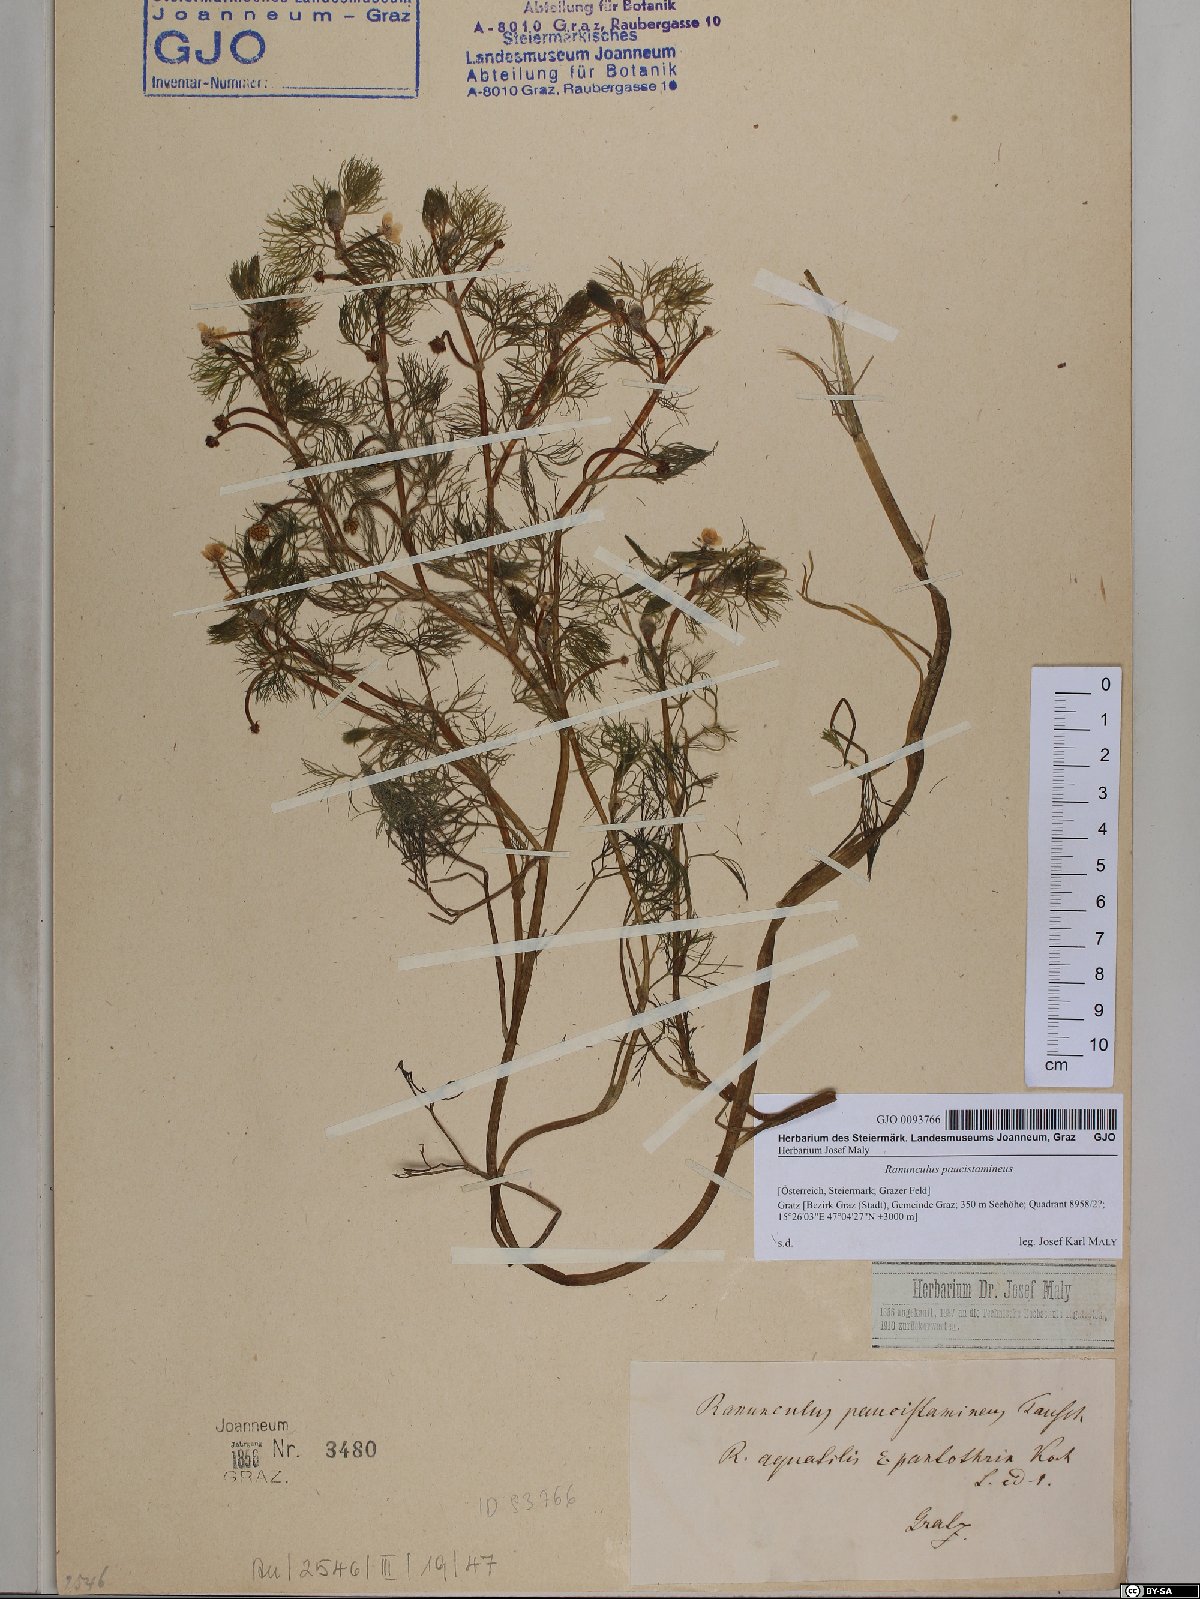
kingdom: Plantae
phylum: Tracheophyta
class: Magnoliopsida
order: Ranunculales
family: Ranunculaceae
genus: Ranunculus
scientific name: Ranunculus
